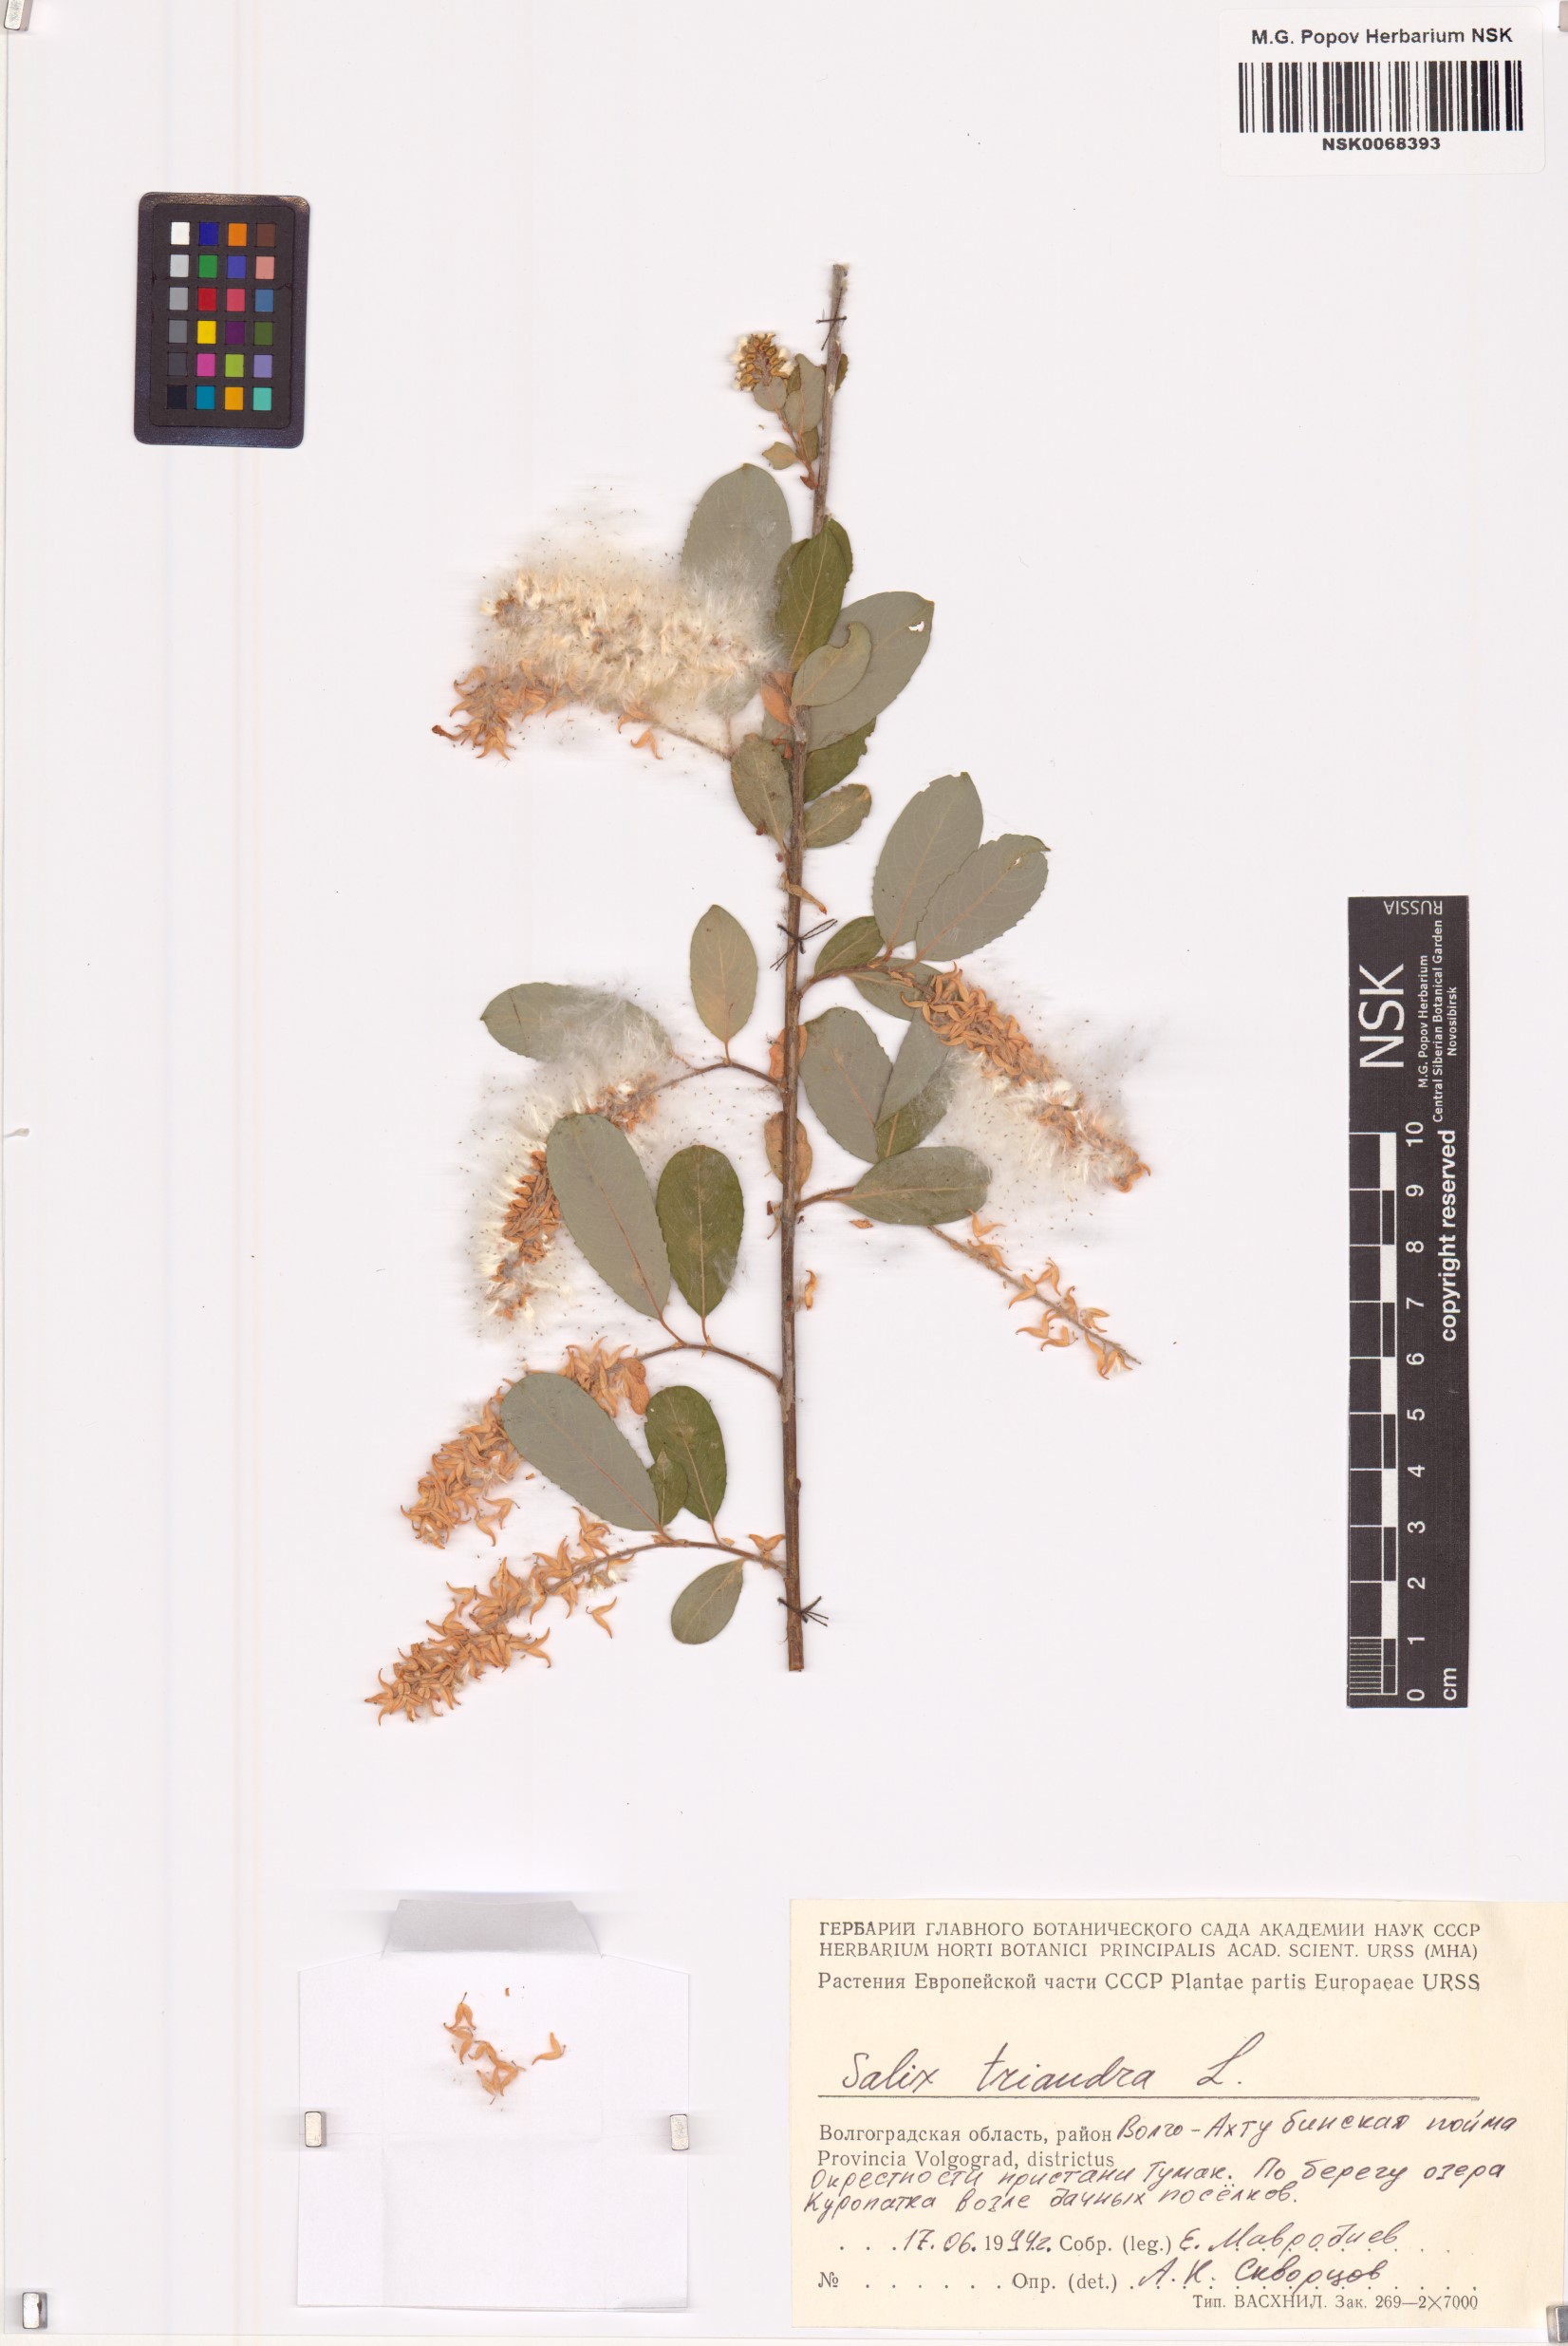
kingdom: Plantae
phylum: Tracheophyta
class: Magnoliopsida
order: Malpighiales
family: Salicaceae
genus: Salix
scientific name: Salix triandra
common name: Almond willow
